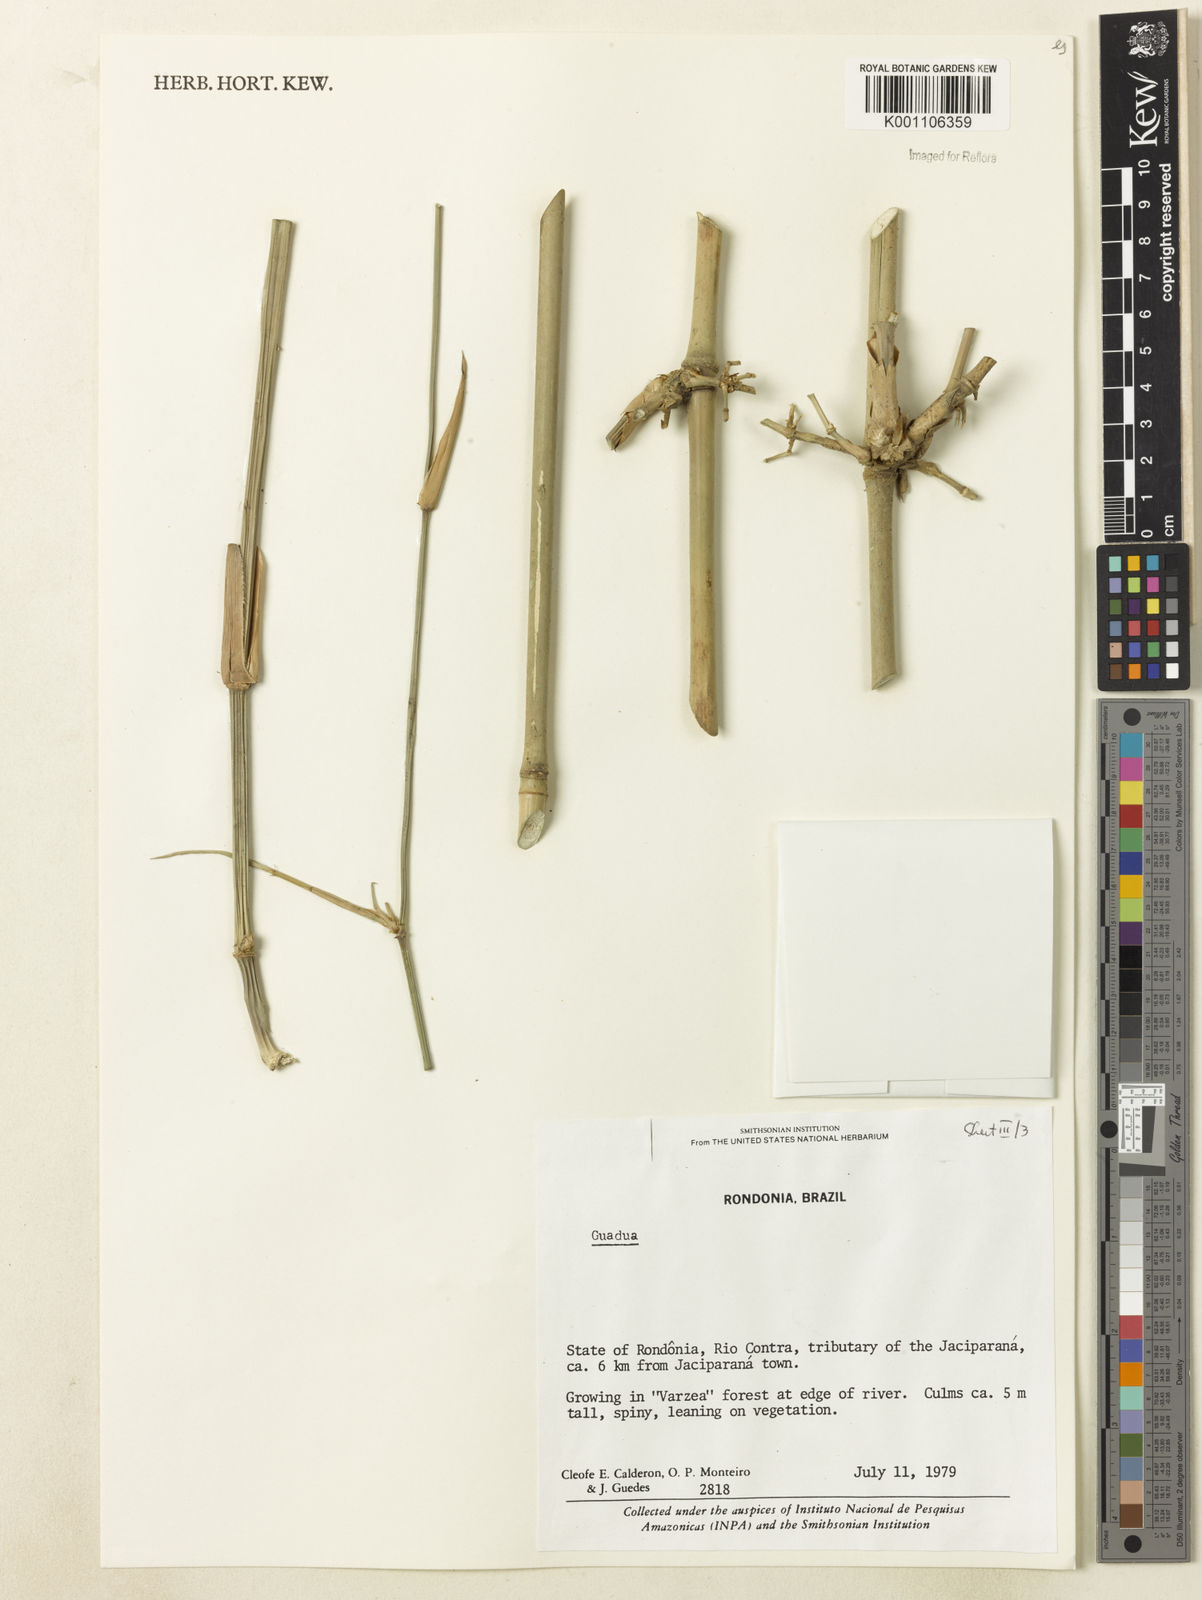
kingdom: Plantae
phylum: Tracheophyta
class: Liliopsida
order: Poales
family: Poaceae
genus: Guadua
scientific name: Guadua
